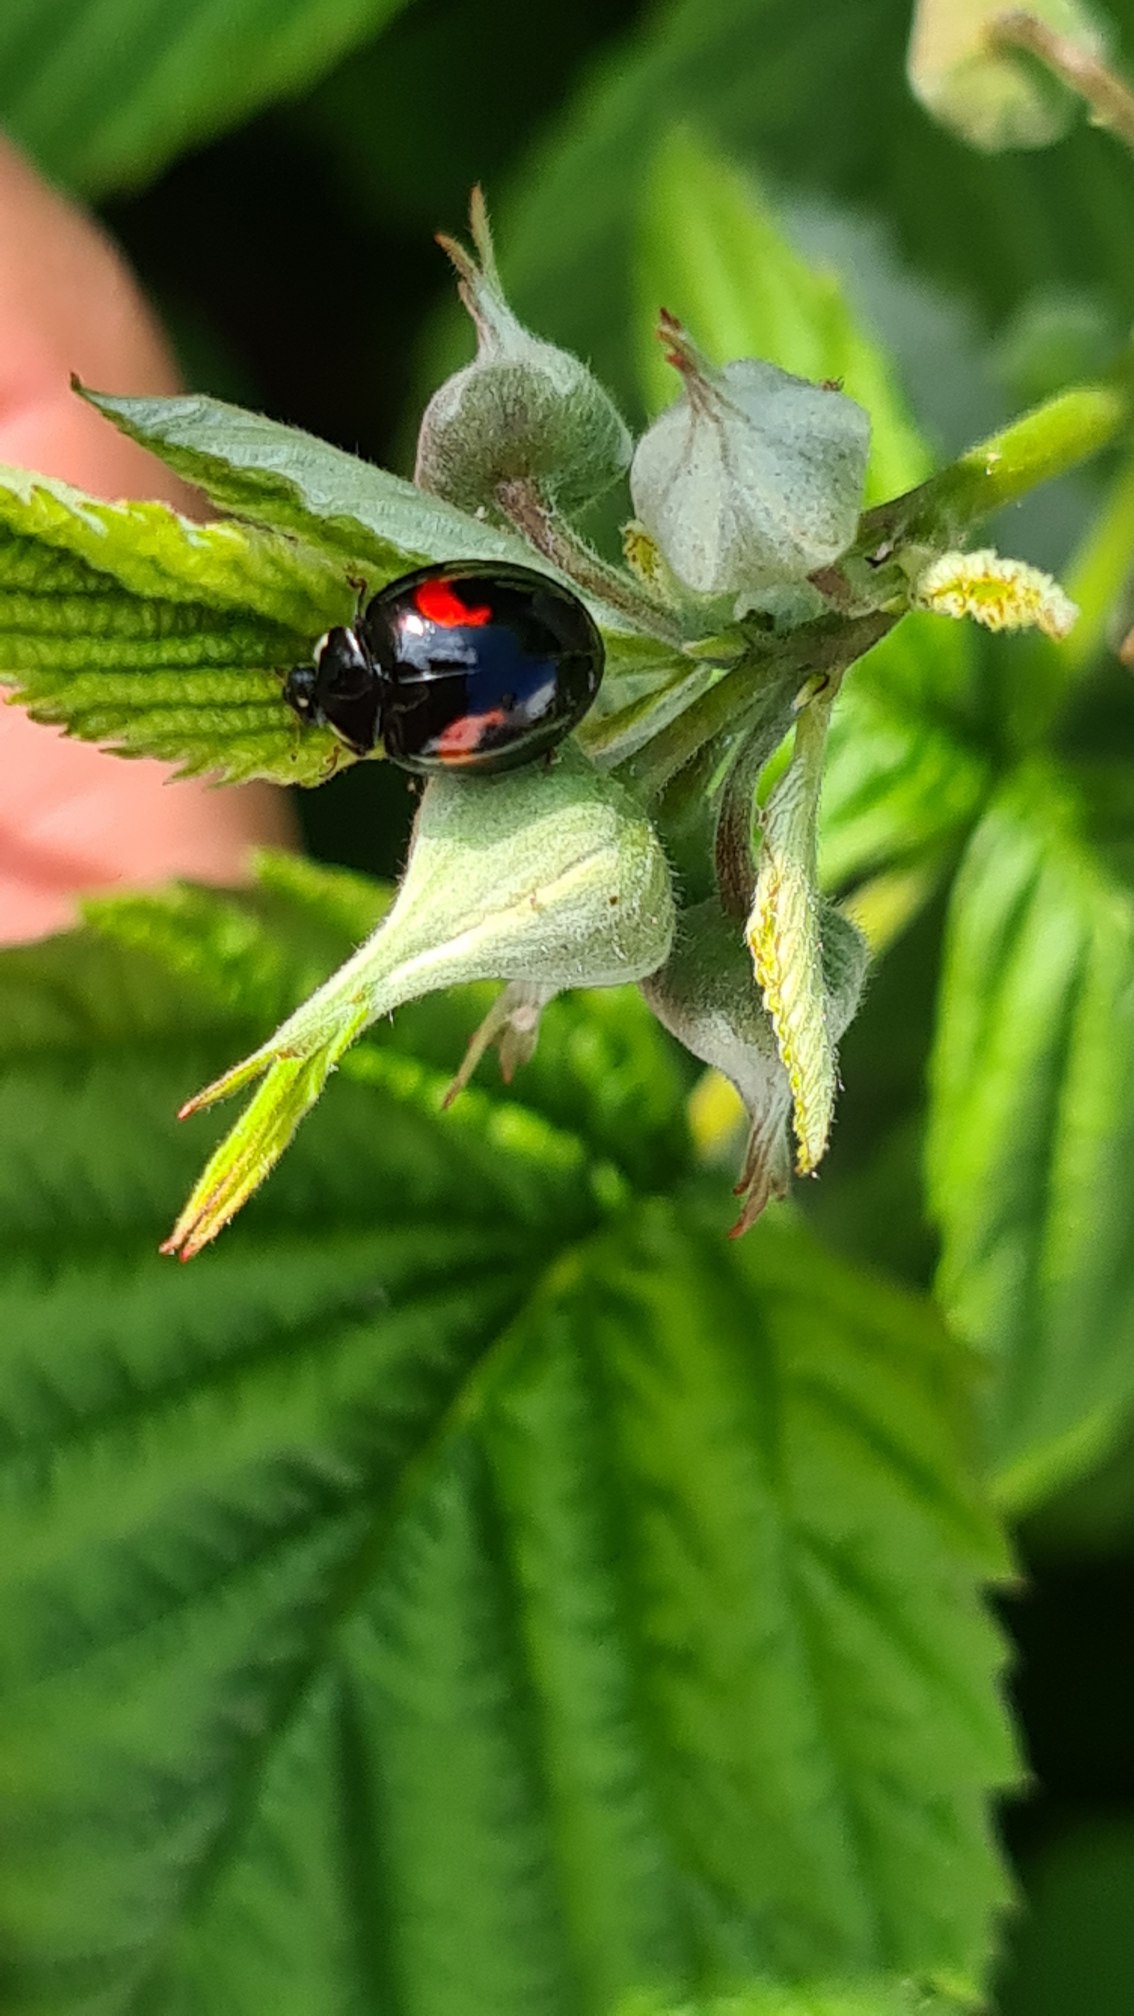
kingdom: Animalia
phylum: Arthropoda
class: Insecta
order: Coleoptera
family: Coccinellidae
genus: Harmonia
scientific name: Harmonia axyridis
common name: Harlekinmariehøne
